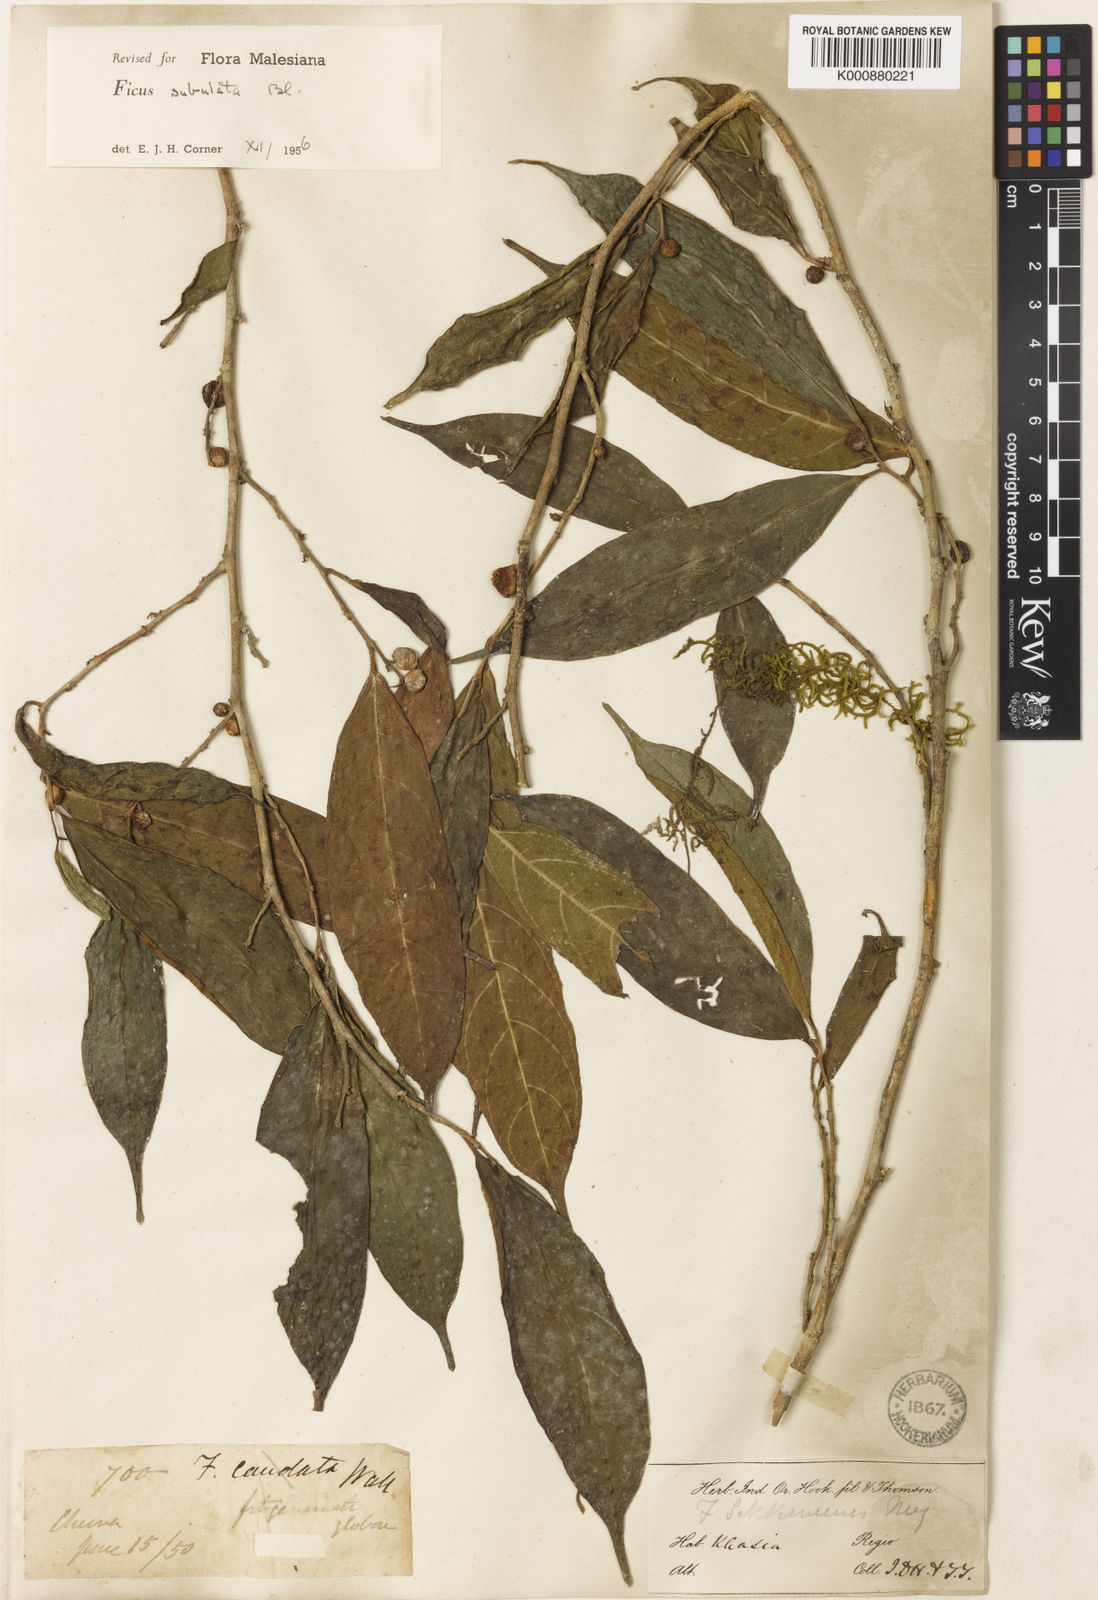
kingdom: Plantae
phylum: Tracheophyta
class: Magnoliopsida
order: Rosales
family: Moraceae
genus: Ficus
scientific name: Ficus subulata
